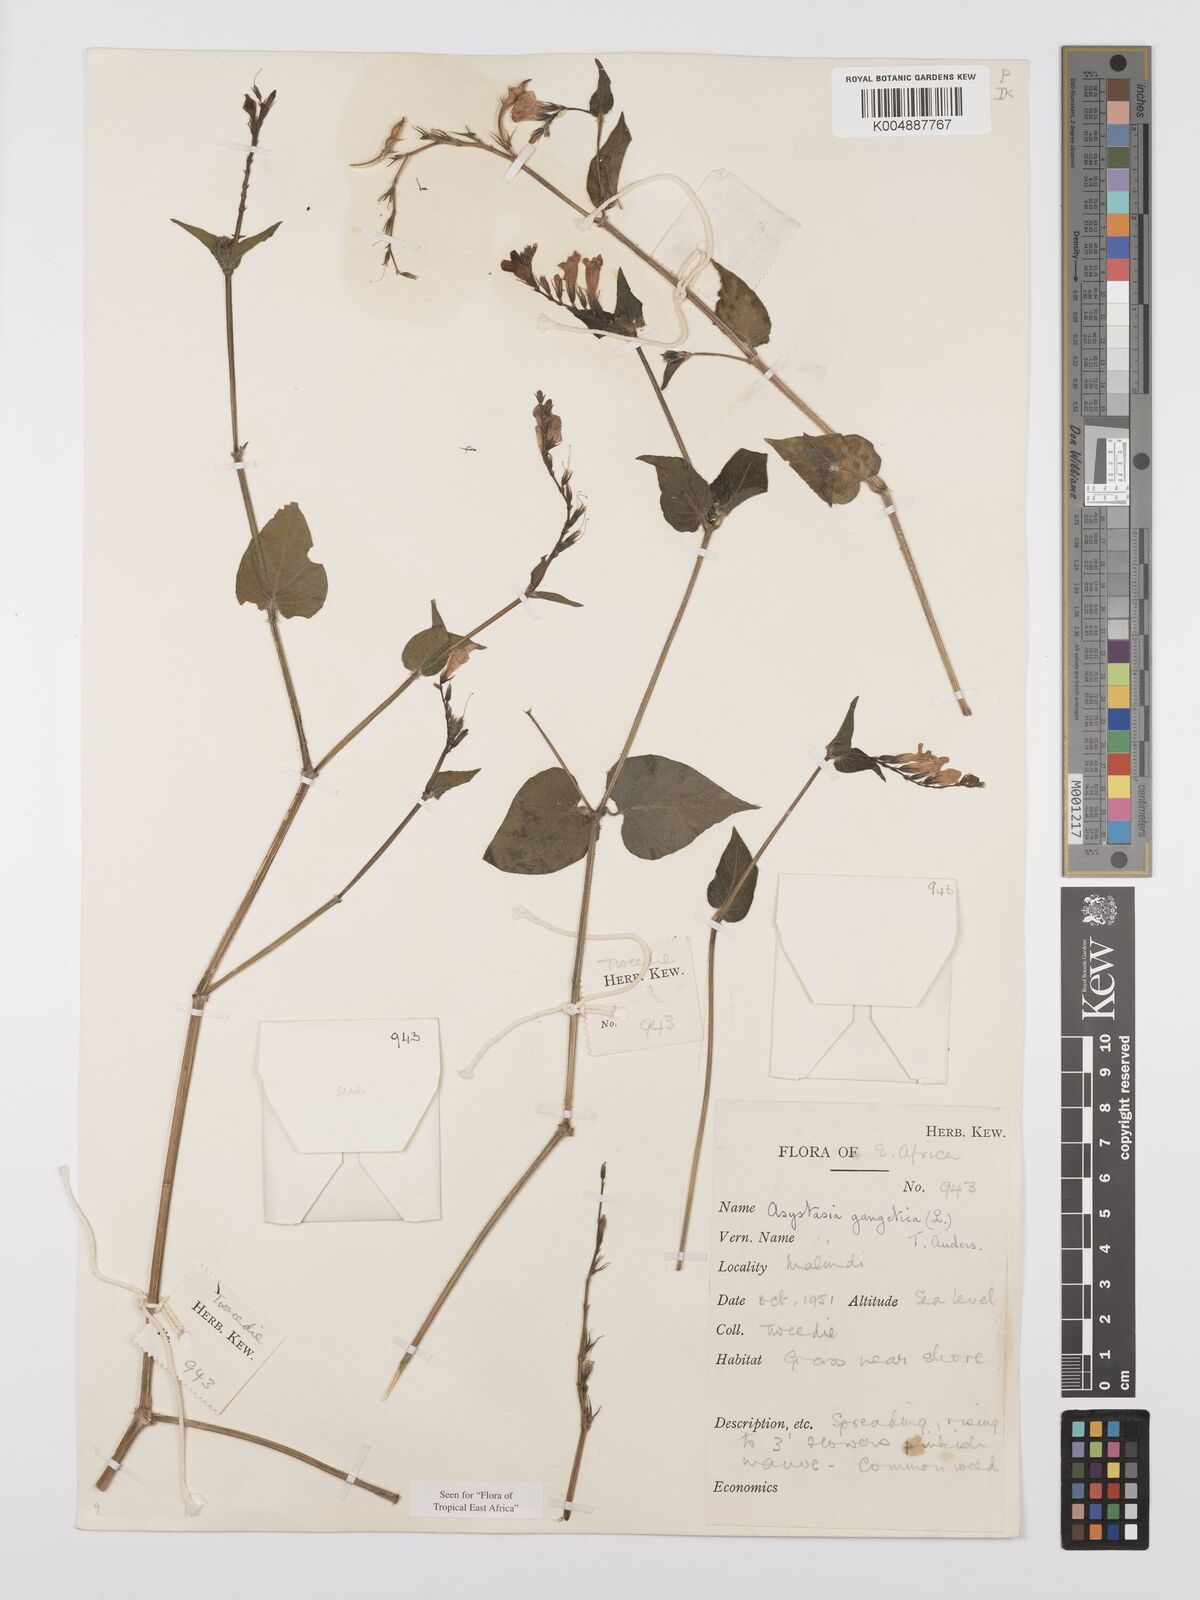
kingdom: Plantae
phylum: Tracheophyta
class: Magnoliopsida
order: Lamiales
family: Acanthaceae
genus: Asystasia
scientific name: Asystasia gangetica
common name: Chinese violet
